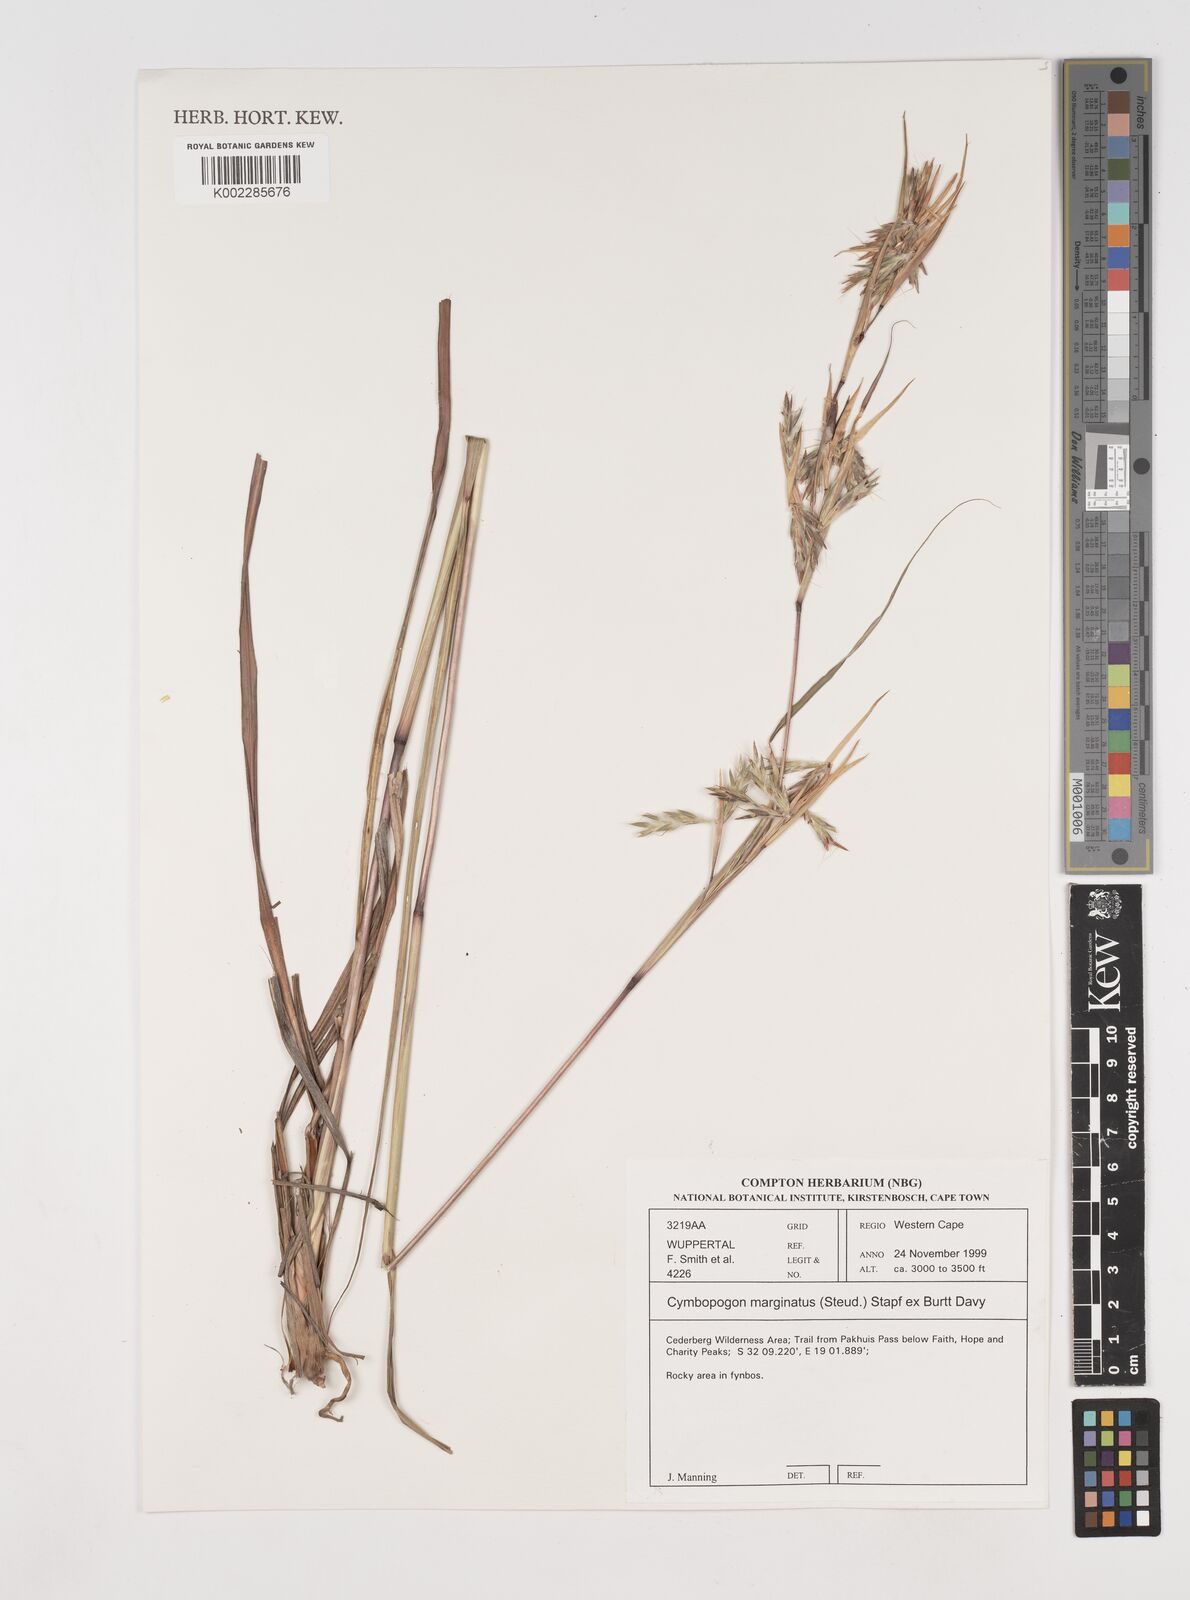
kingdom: Plantae
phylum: Tracheophyta
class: Liliopsida
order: Poales
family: Poaceae
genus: Cymbopogon
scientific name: Cymbopogon marginatus
